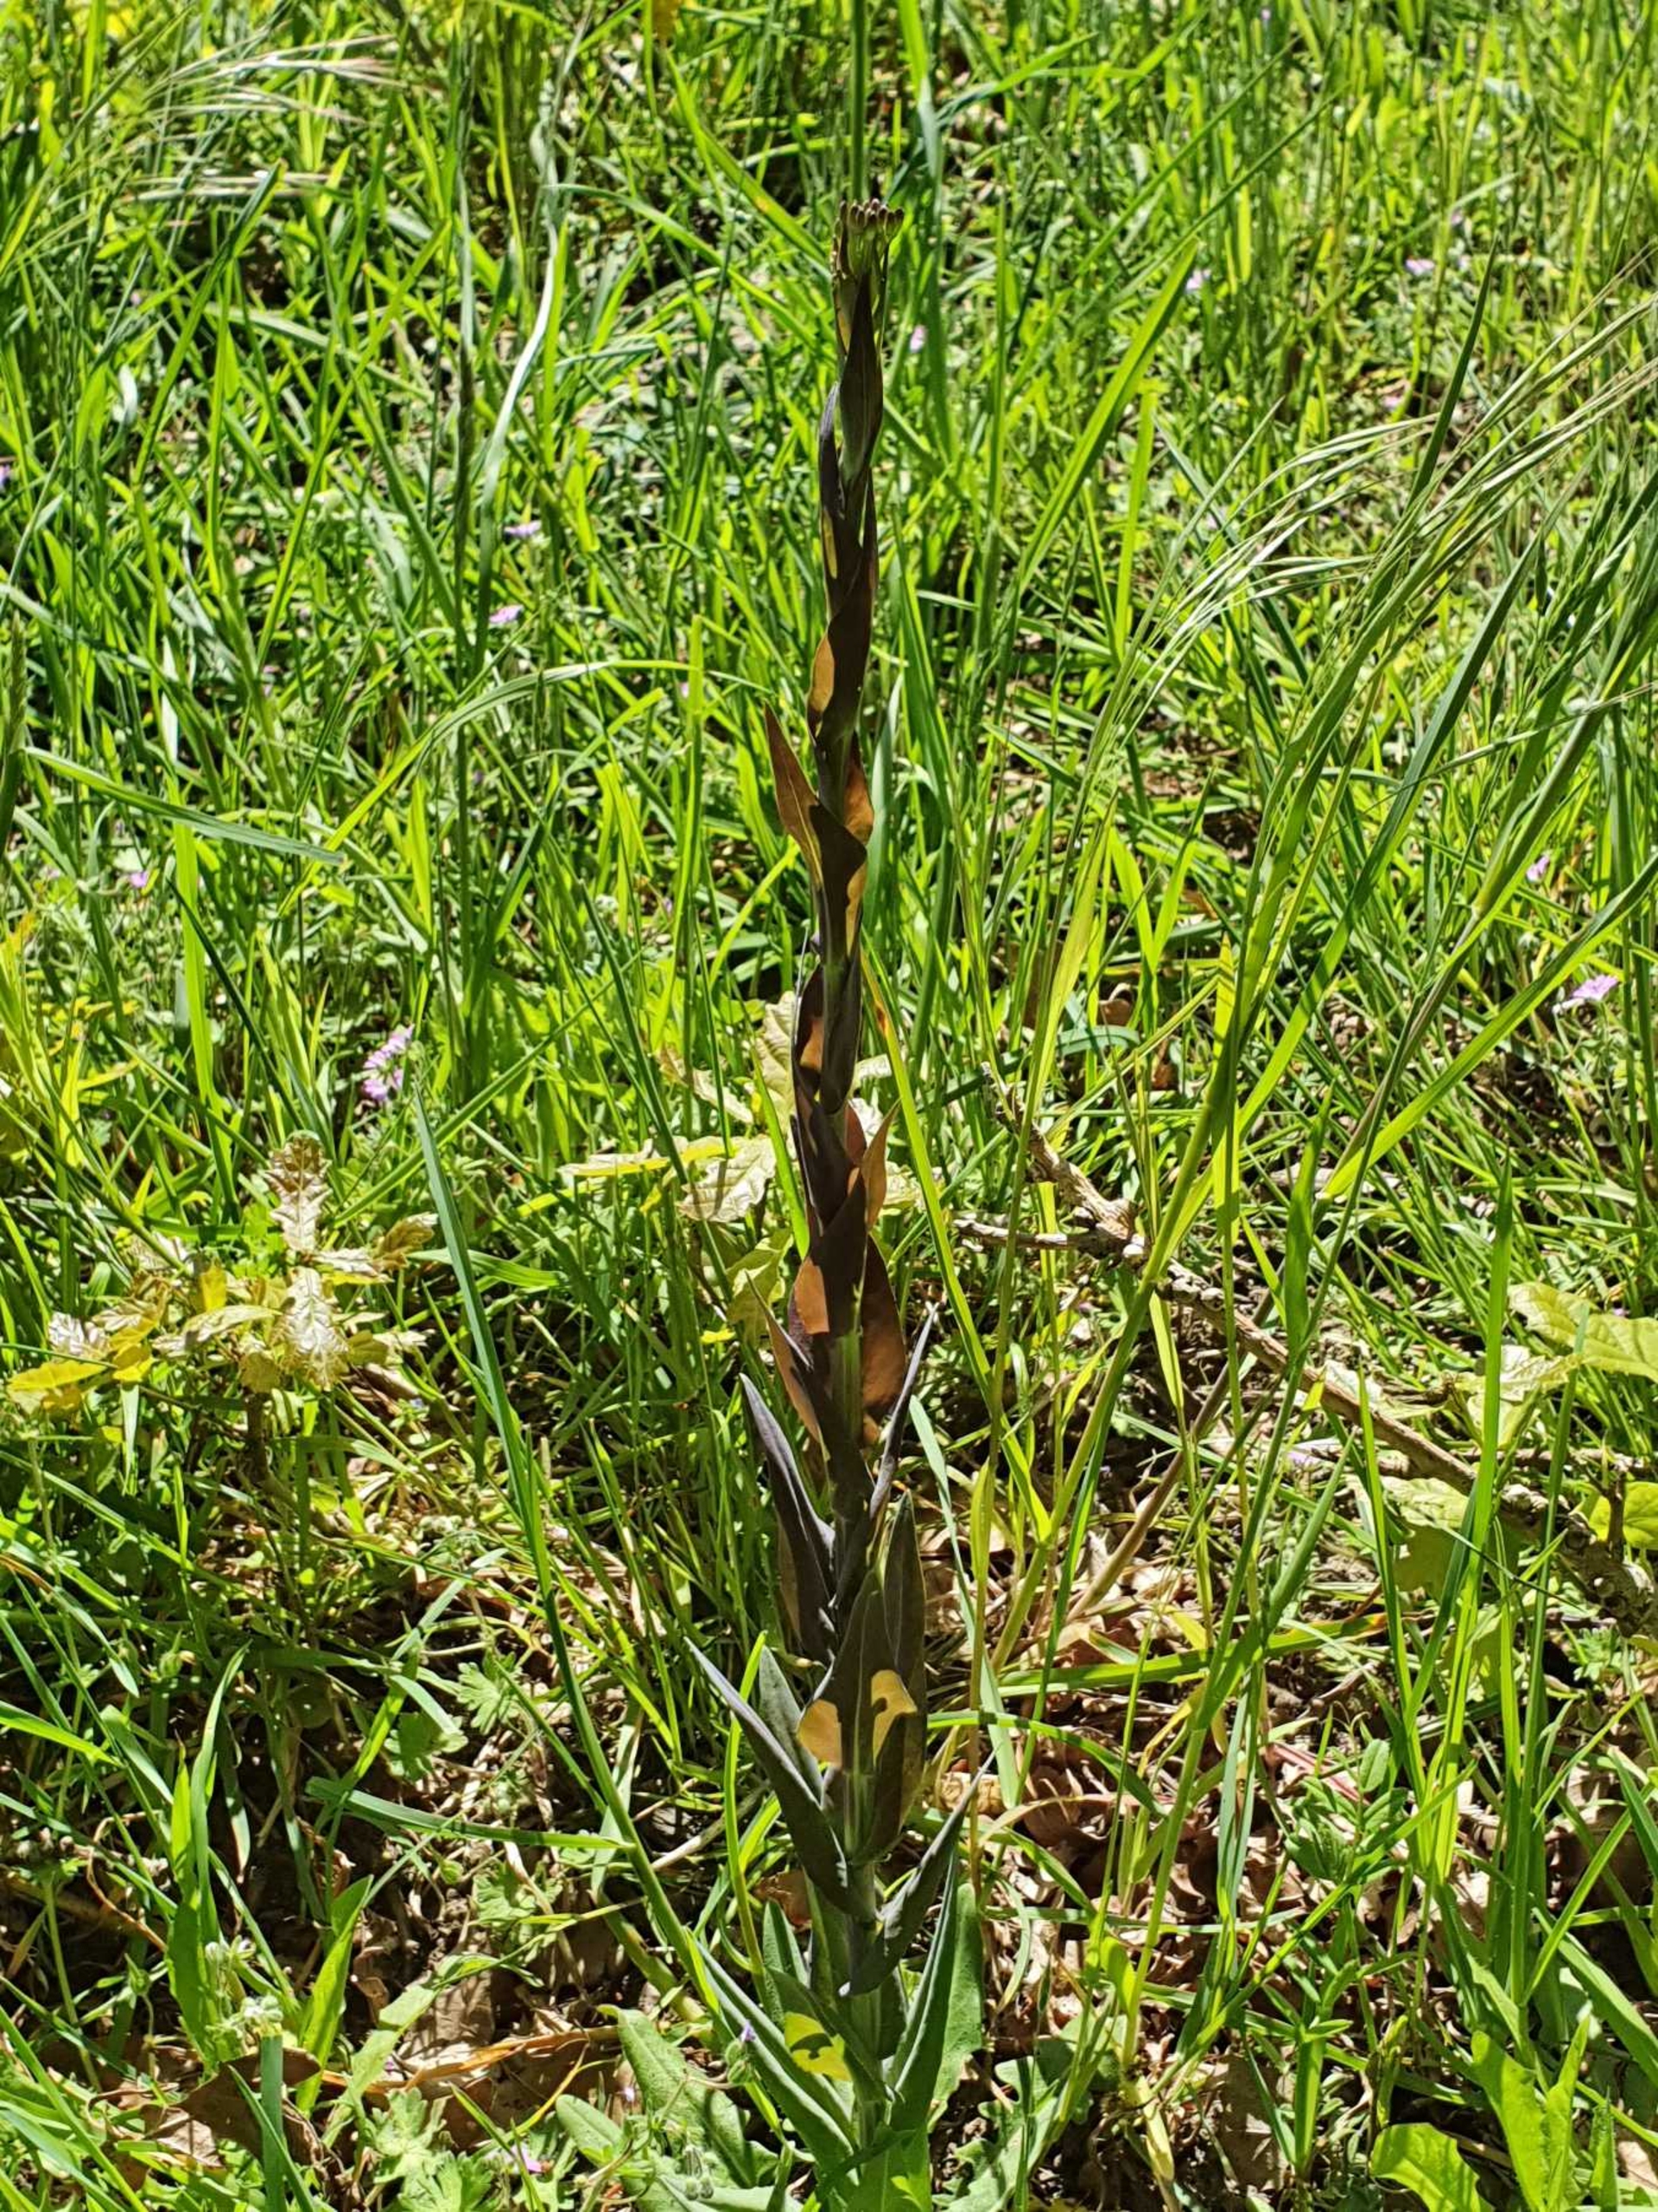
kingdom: Plantae
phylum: Tracheophyta
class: Magnoliopsida
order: Brassicales
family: Brassicaceae
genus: Turritis
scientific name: Turritis glabra
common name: Tårnurt
